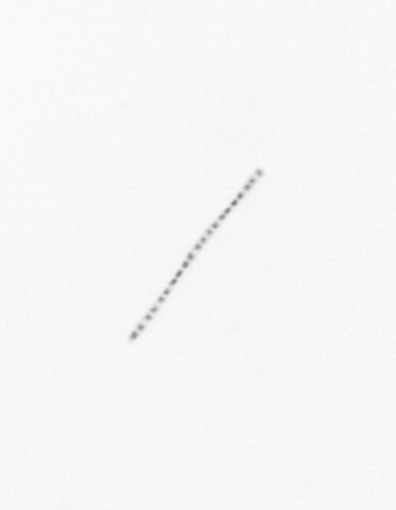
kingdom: Chromista
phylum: Ochrophyta
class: Bacillariophyceae
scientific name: Bacillariophyceae
